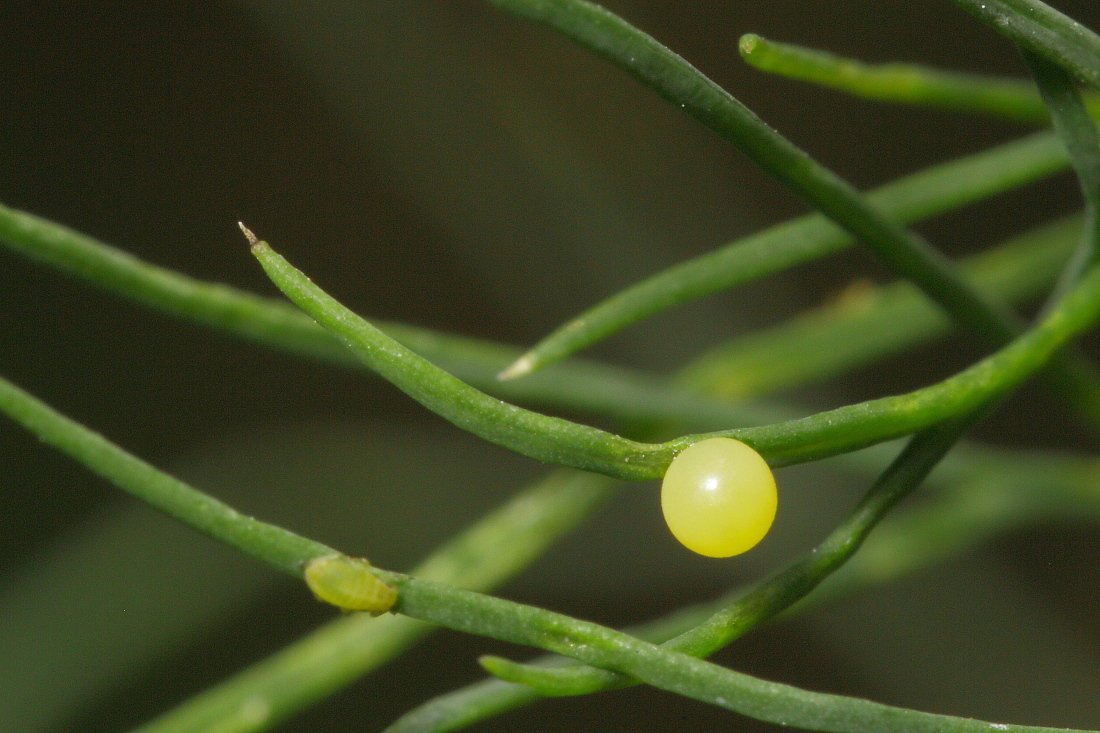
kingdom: Animalia
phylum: Arthropoda
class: Insecta
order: Lepidoptera
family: Papilionidae
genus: Papilio
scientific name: Papilio polyxenes
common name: Black Swallowtail
